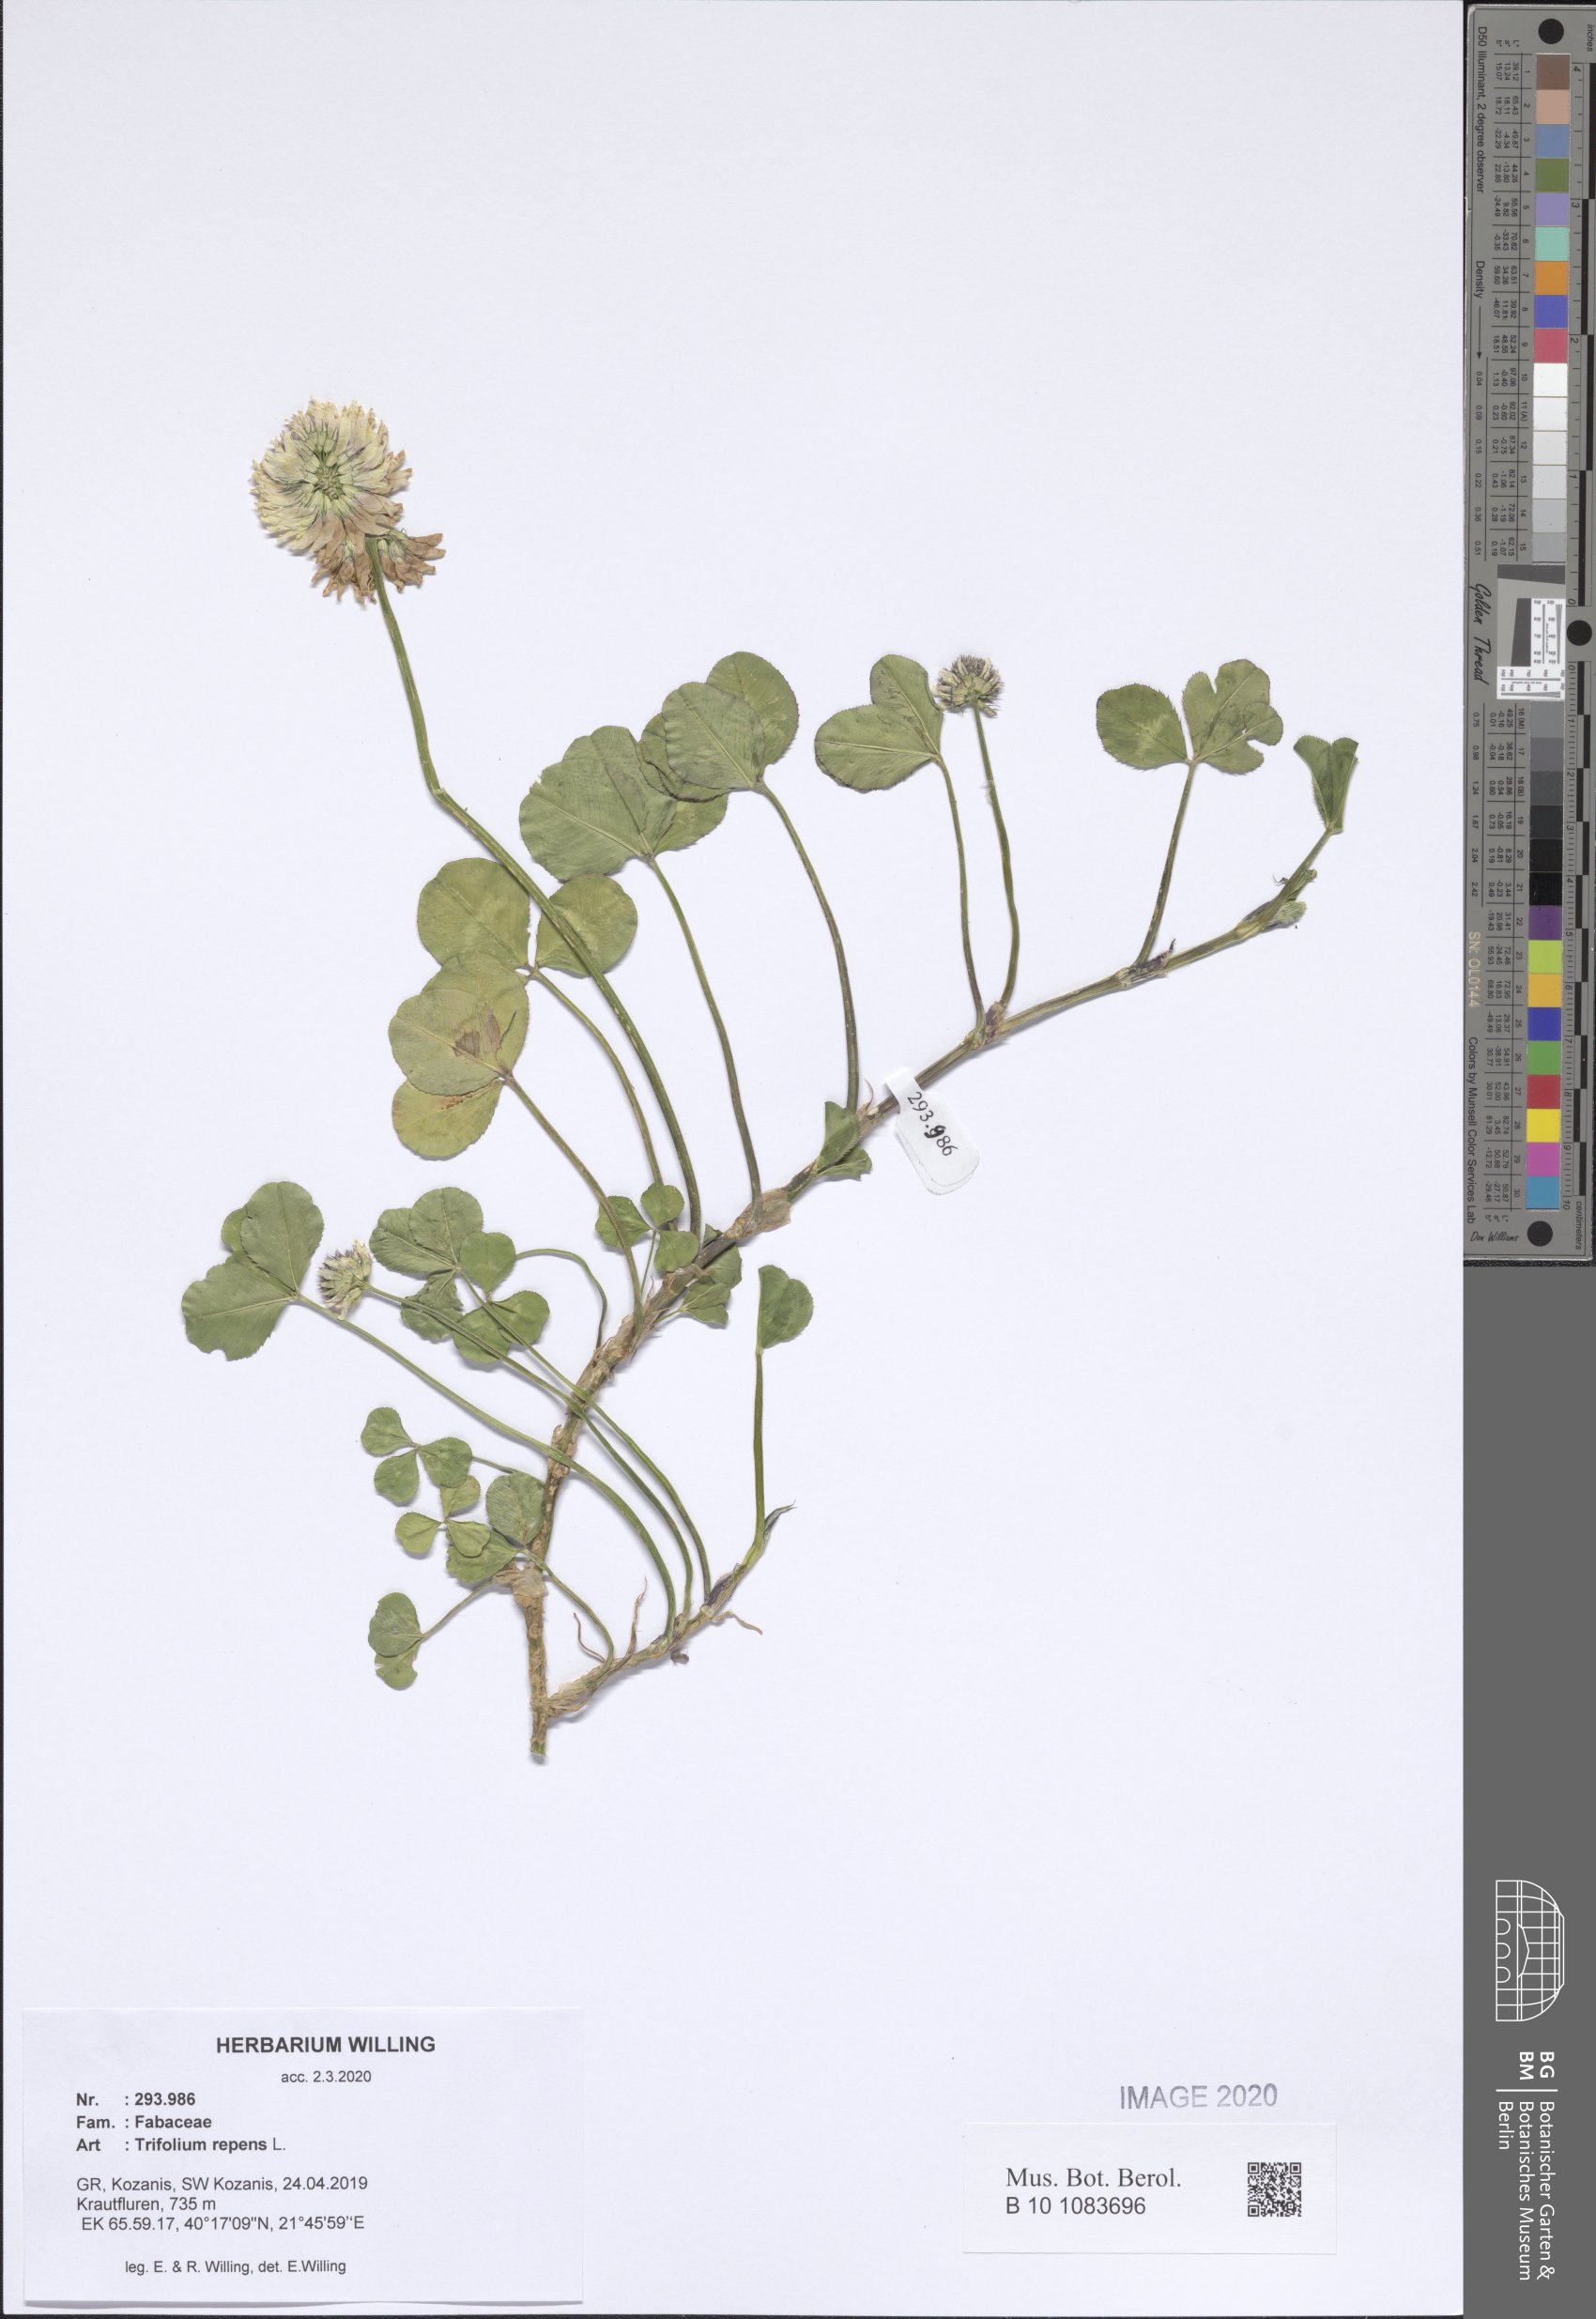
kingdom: Plantae
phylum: Tracheophyta
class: Magnoliopsida
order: Fabales
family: Fabaceae
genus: Trifolium
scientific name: Trifolium repens
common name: White clover
